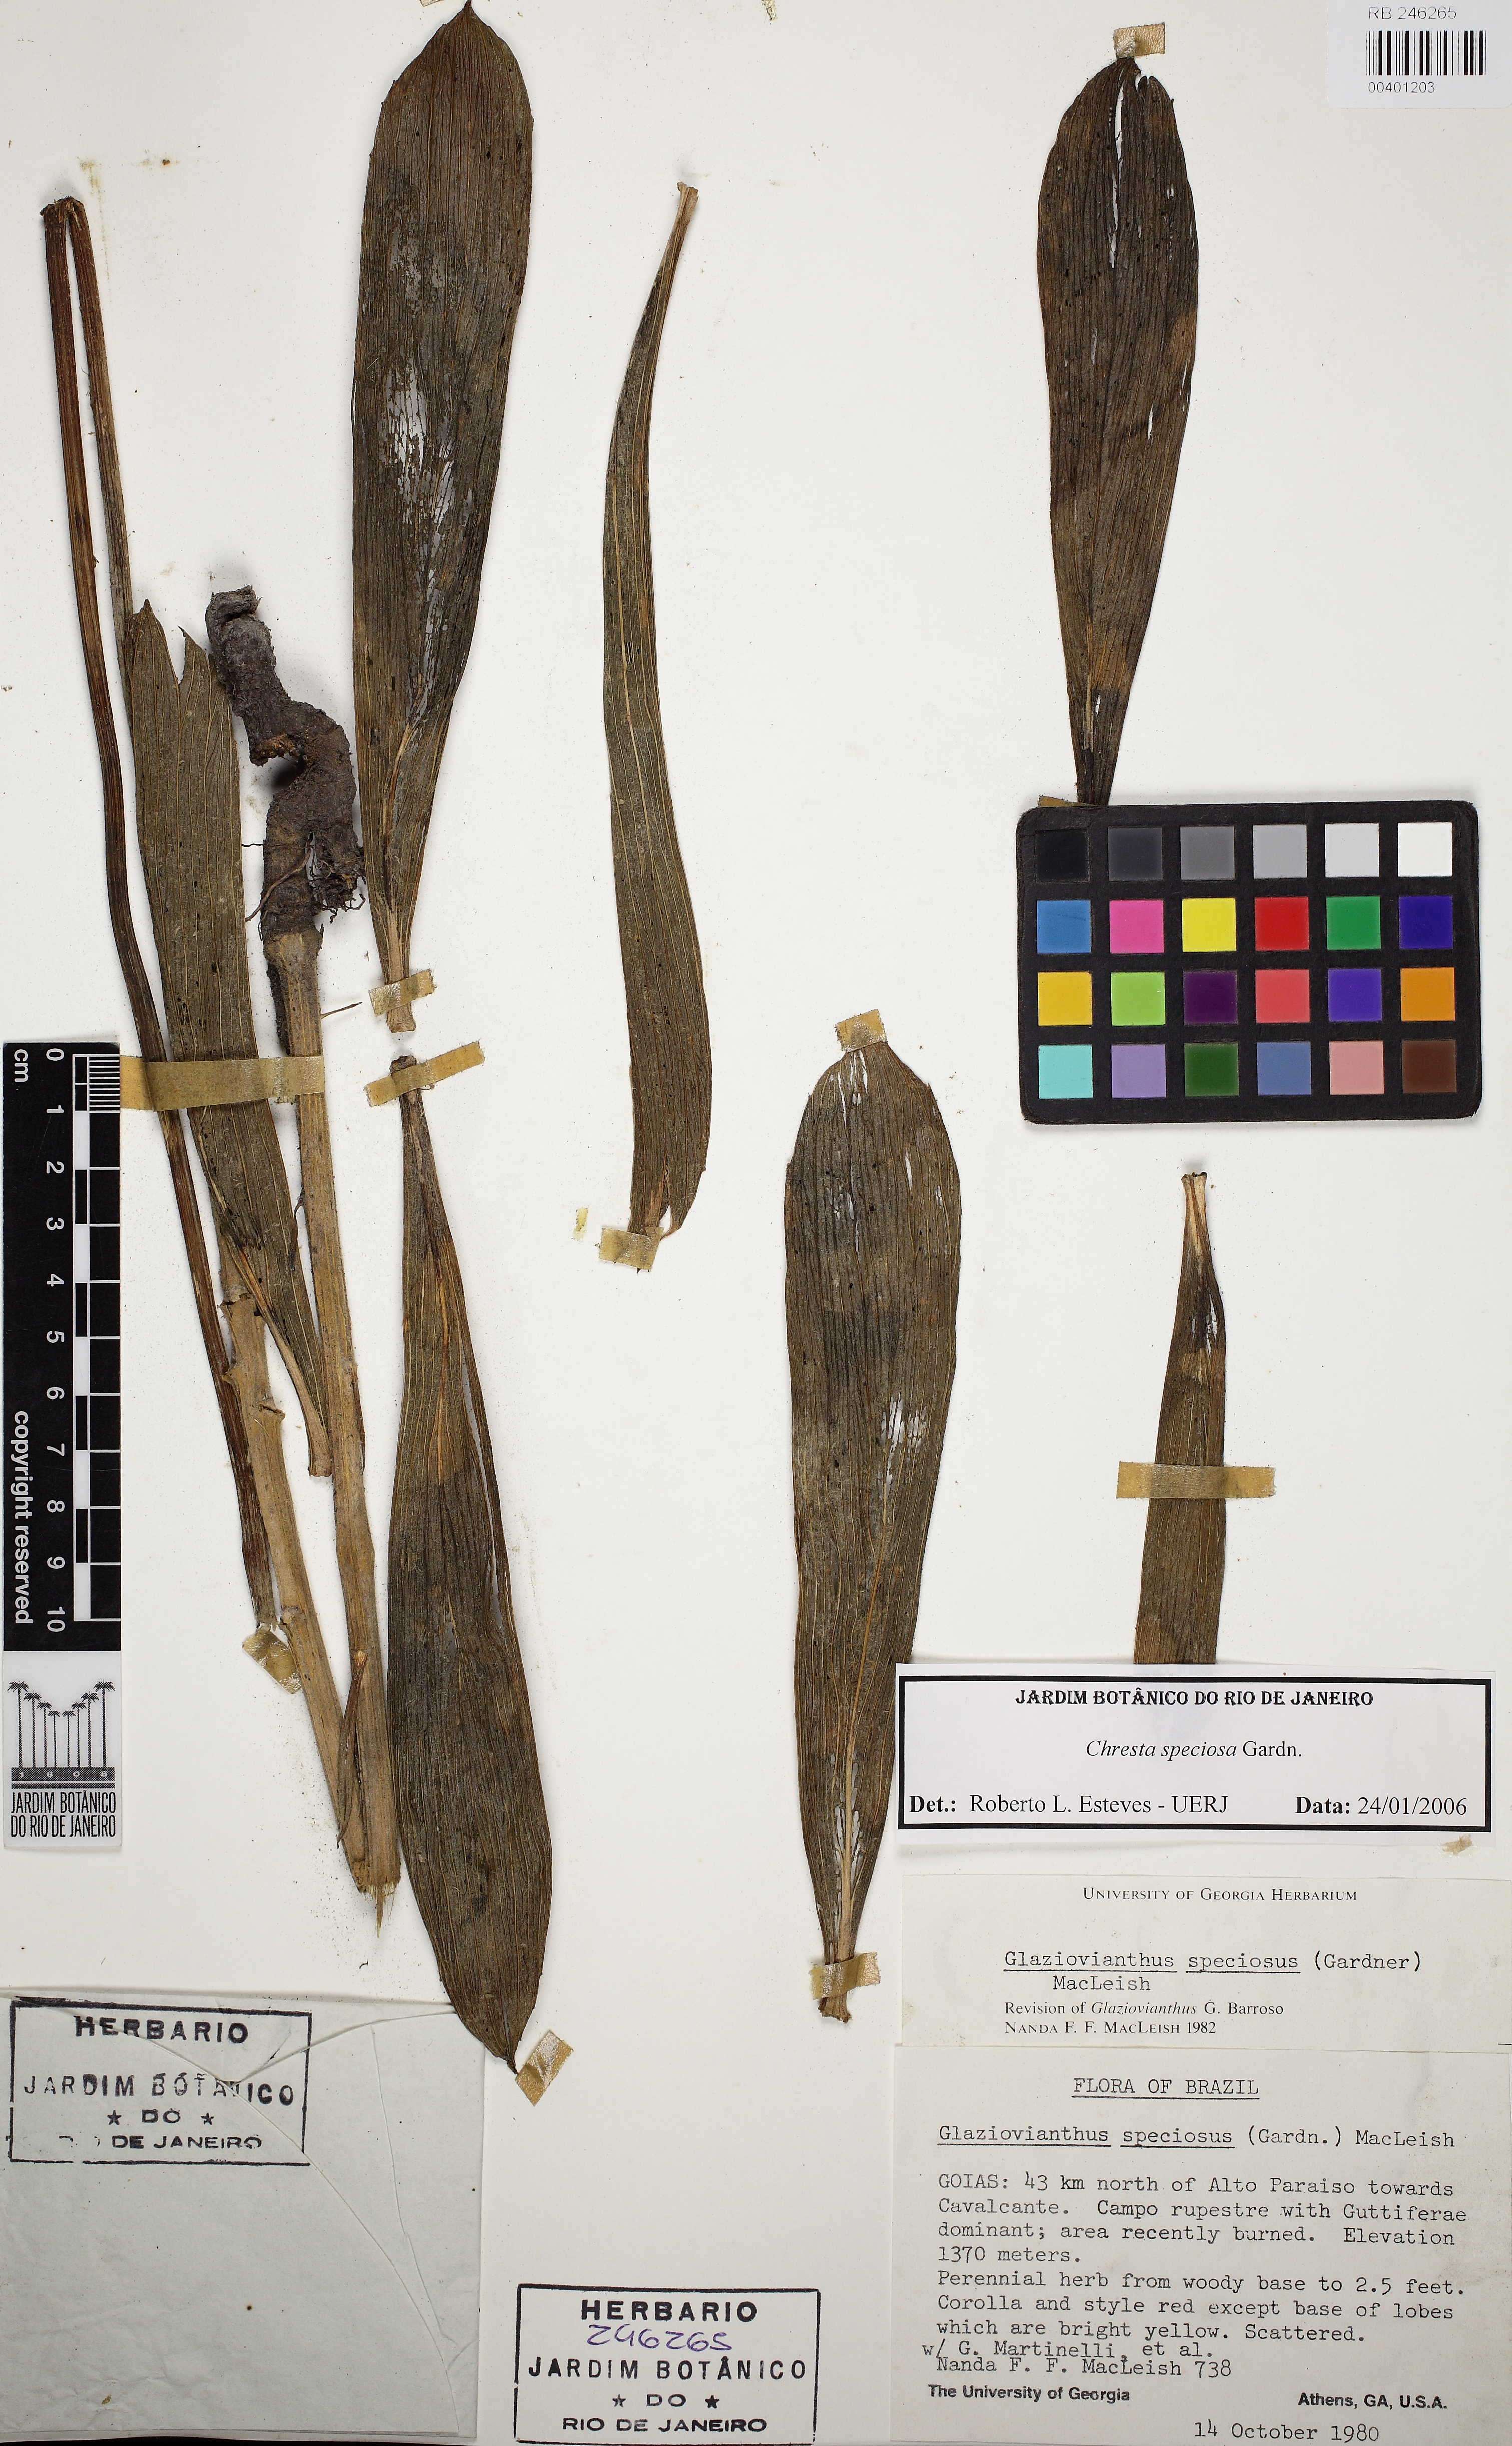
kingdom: Plantae
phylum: Tracheophyta
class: Magnoliopsida
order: Asterales
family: Asteraceae
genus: Chresta
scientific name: Chresta speciosa
